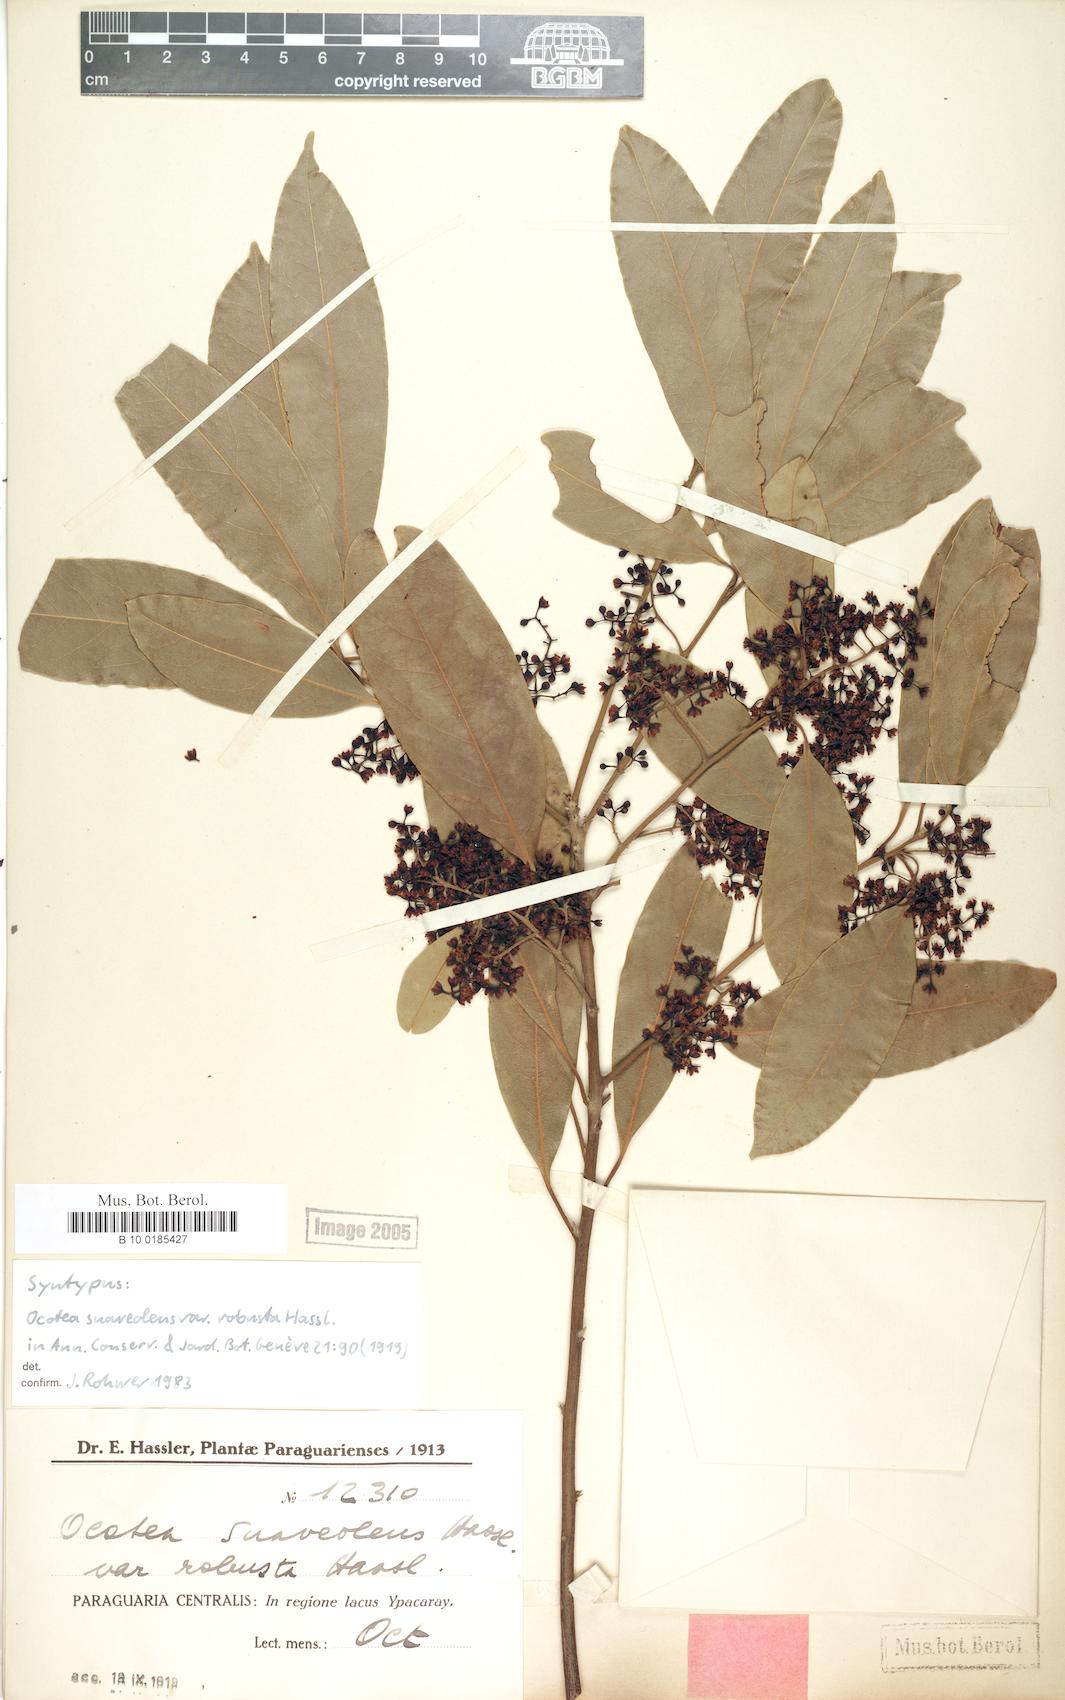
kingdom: Plantae
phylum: Tracheophyta
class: Magnoliopsida
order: Laurales
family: Lauraceae
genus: Ocotea
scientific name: Ocotea diospyrifolia
